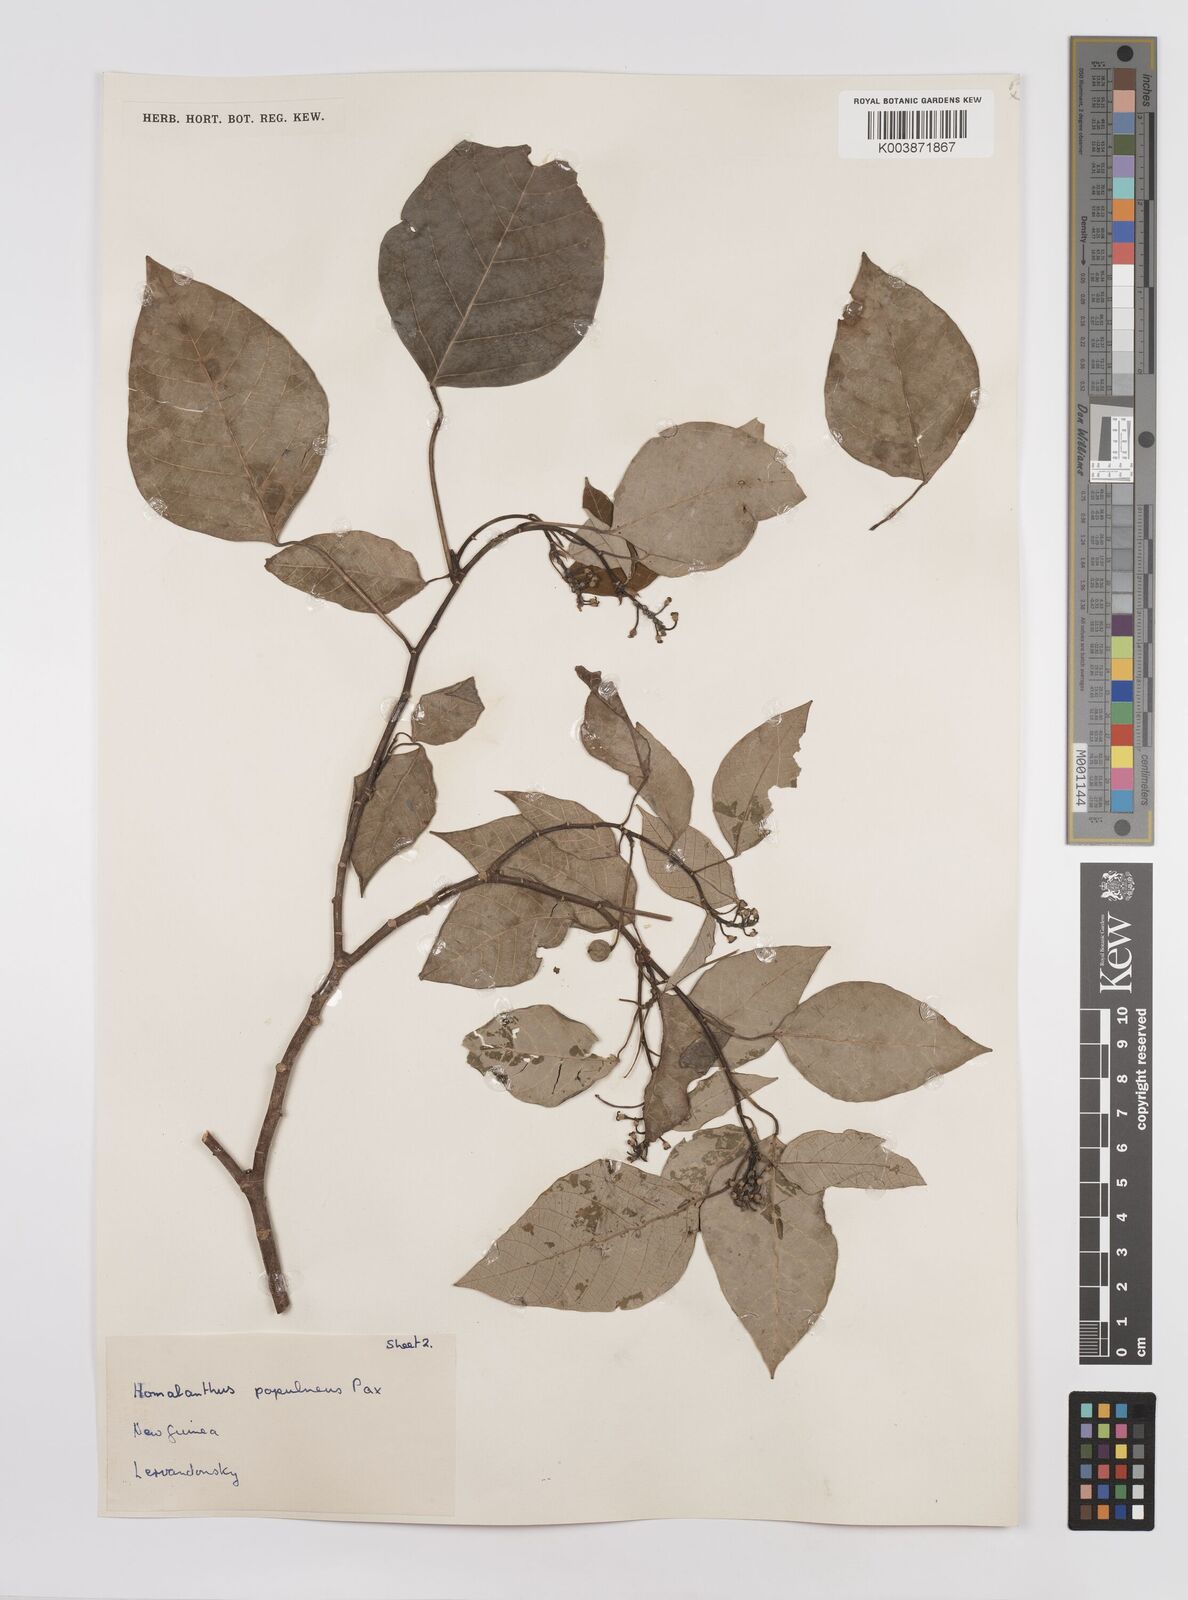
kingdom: Plantae
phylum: Tracheophyta
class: Magnoliopsida
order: Malpighiales
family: Euphorbiaceae
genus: Homalanthus
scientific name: Homalanthus novoguineensis
